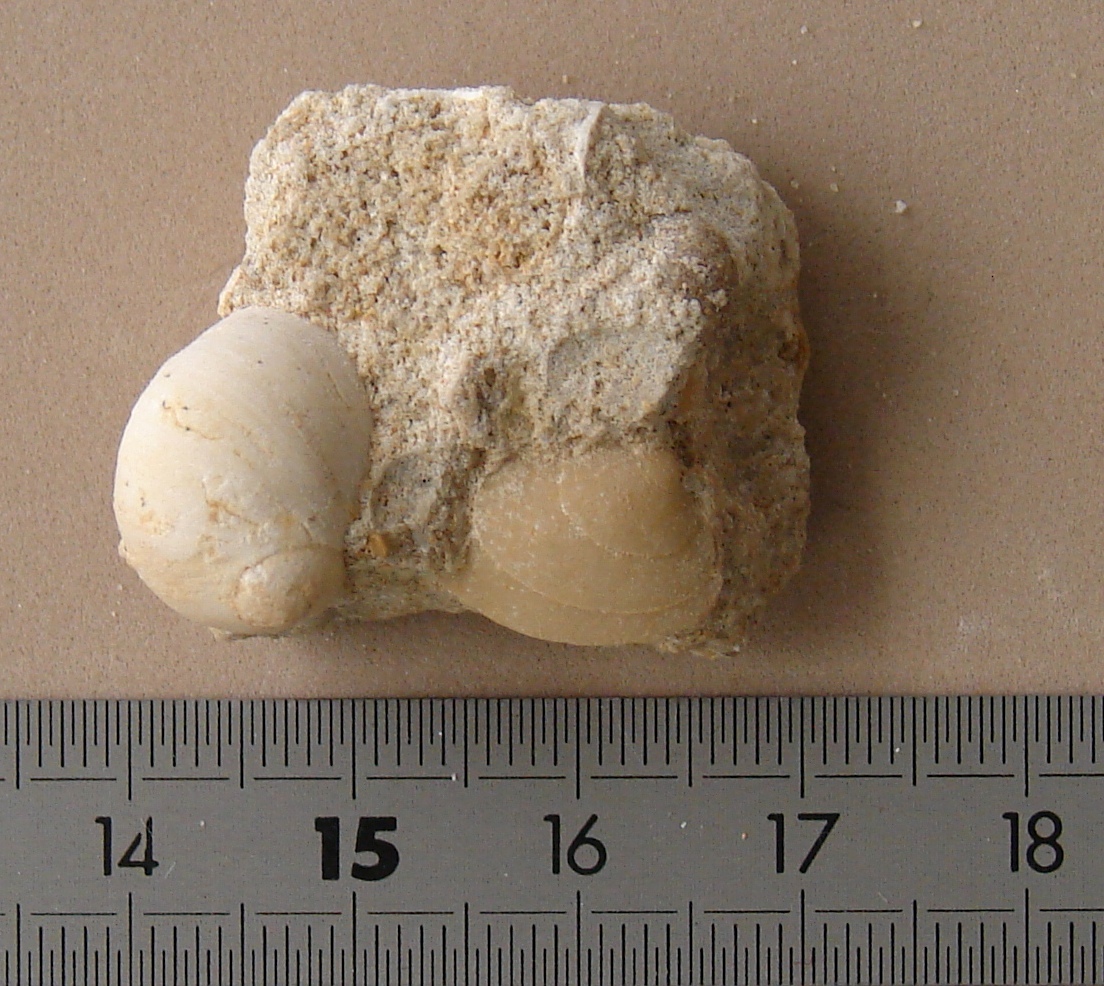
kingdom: Animalia
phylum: Mollusca
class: Gastropoda
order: Cycloneritida
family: Neridomidae
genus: Neridomus
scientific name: Neridomus liasina
